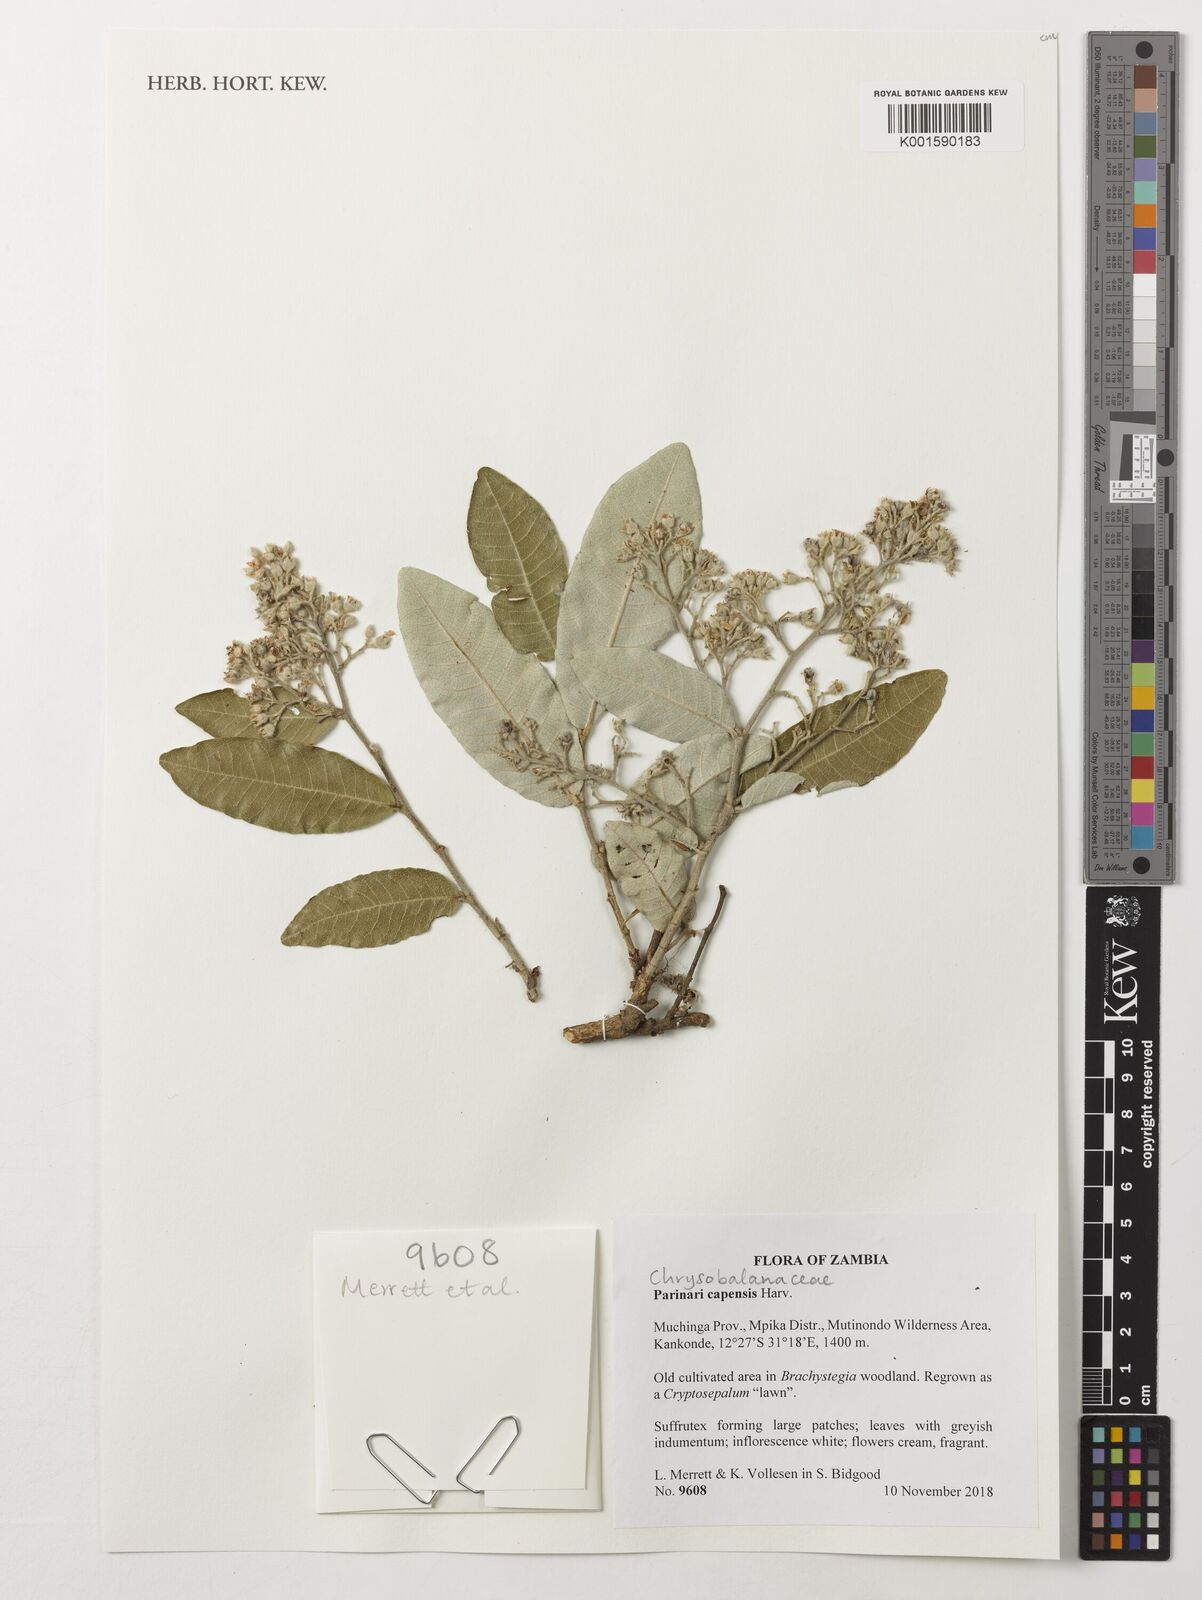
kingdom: Plantae
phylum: Tracheophyta
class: Magnoliopsida
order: Malpighiales
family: Chrysobalanaceae
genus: Parinari
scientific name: Parinari capensis
